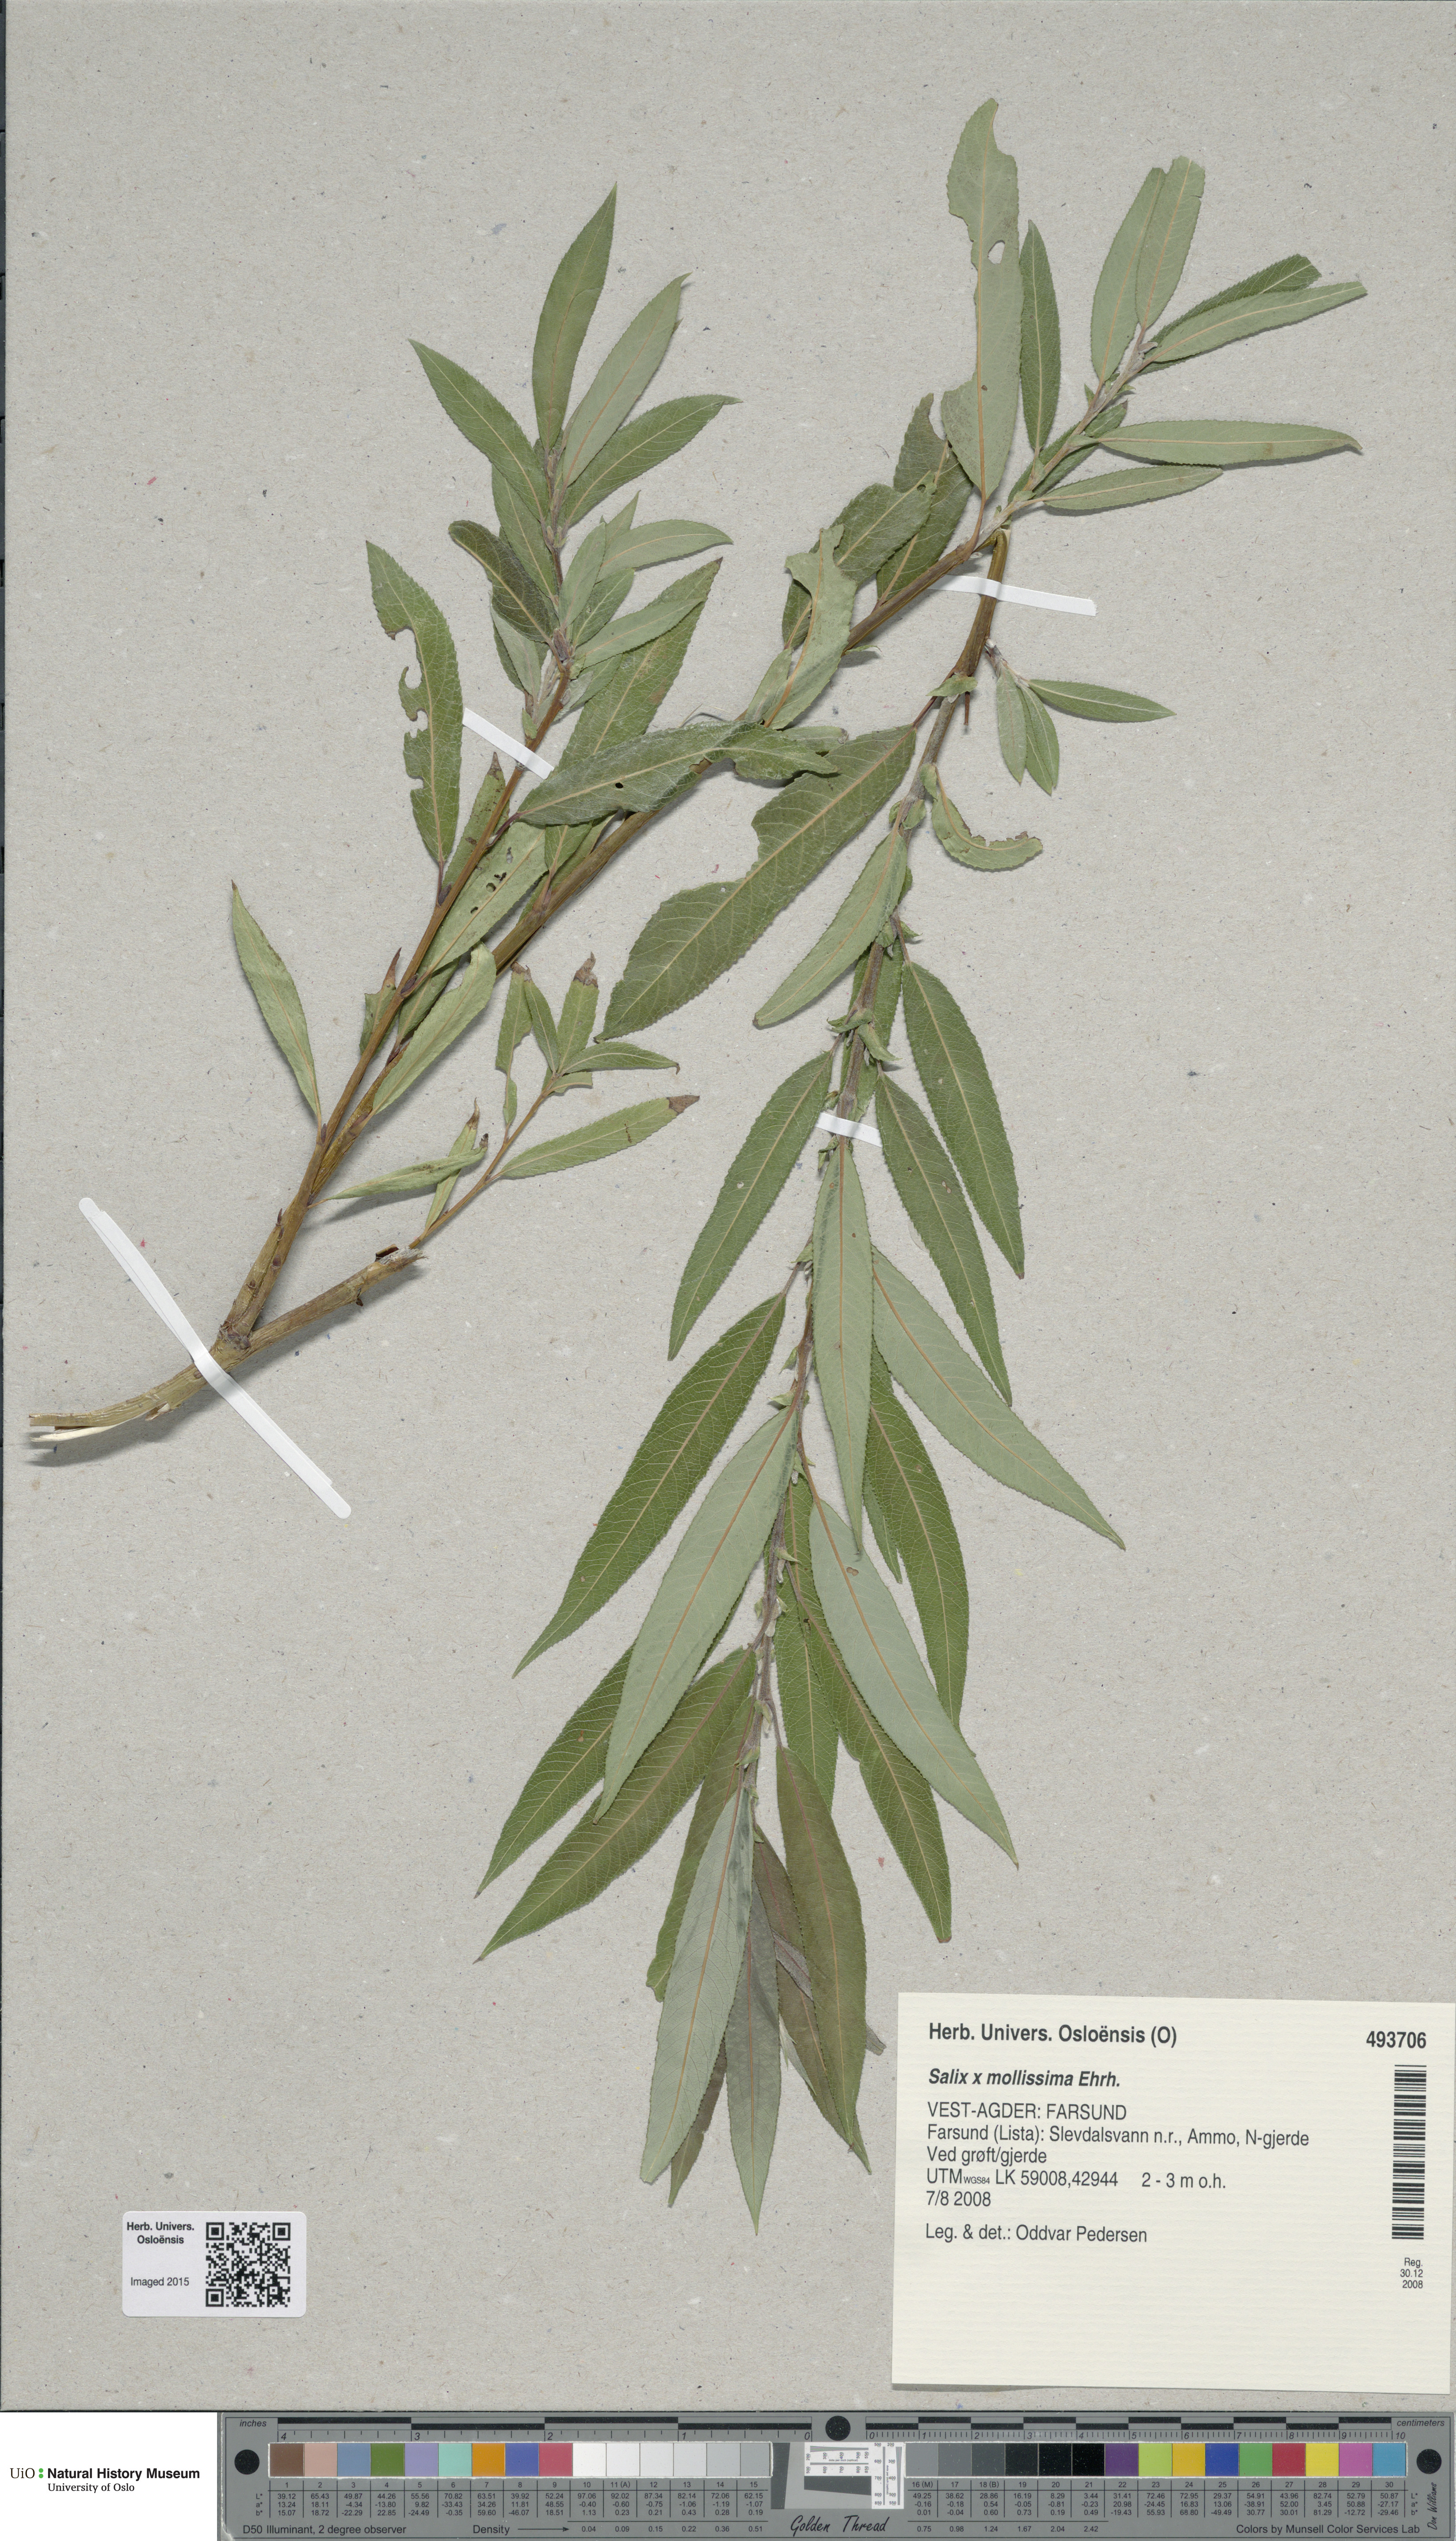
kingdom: Plantae
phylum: Tracheophyta
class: Magnoliopsida
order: Malpighiales
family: Salicaceae
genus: Salix
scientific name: Salix mollissima
